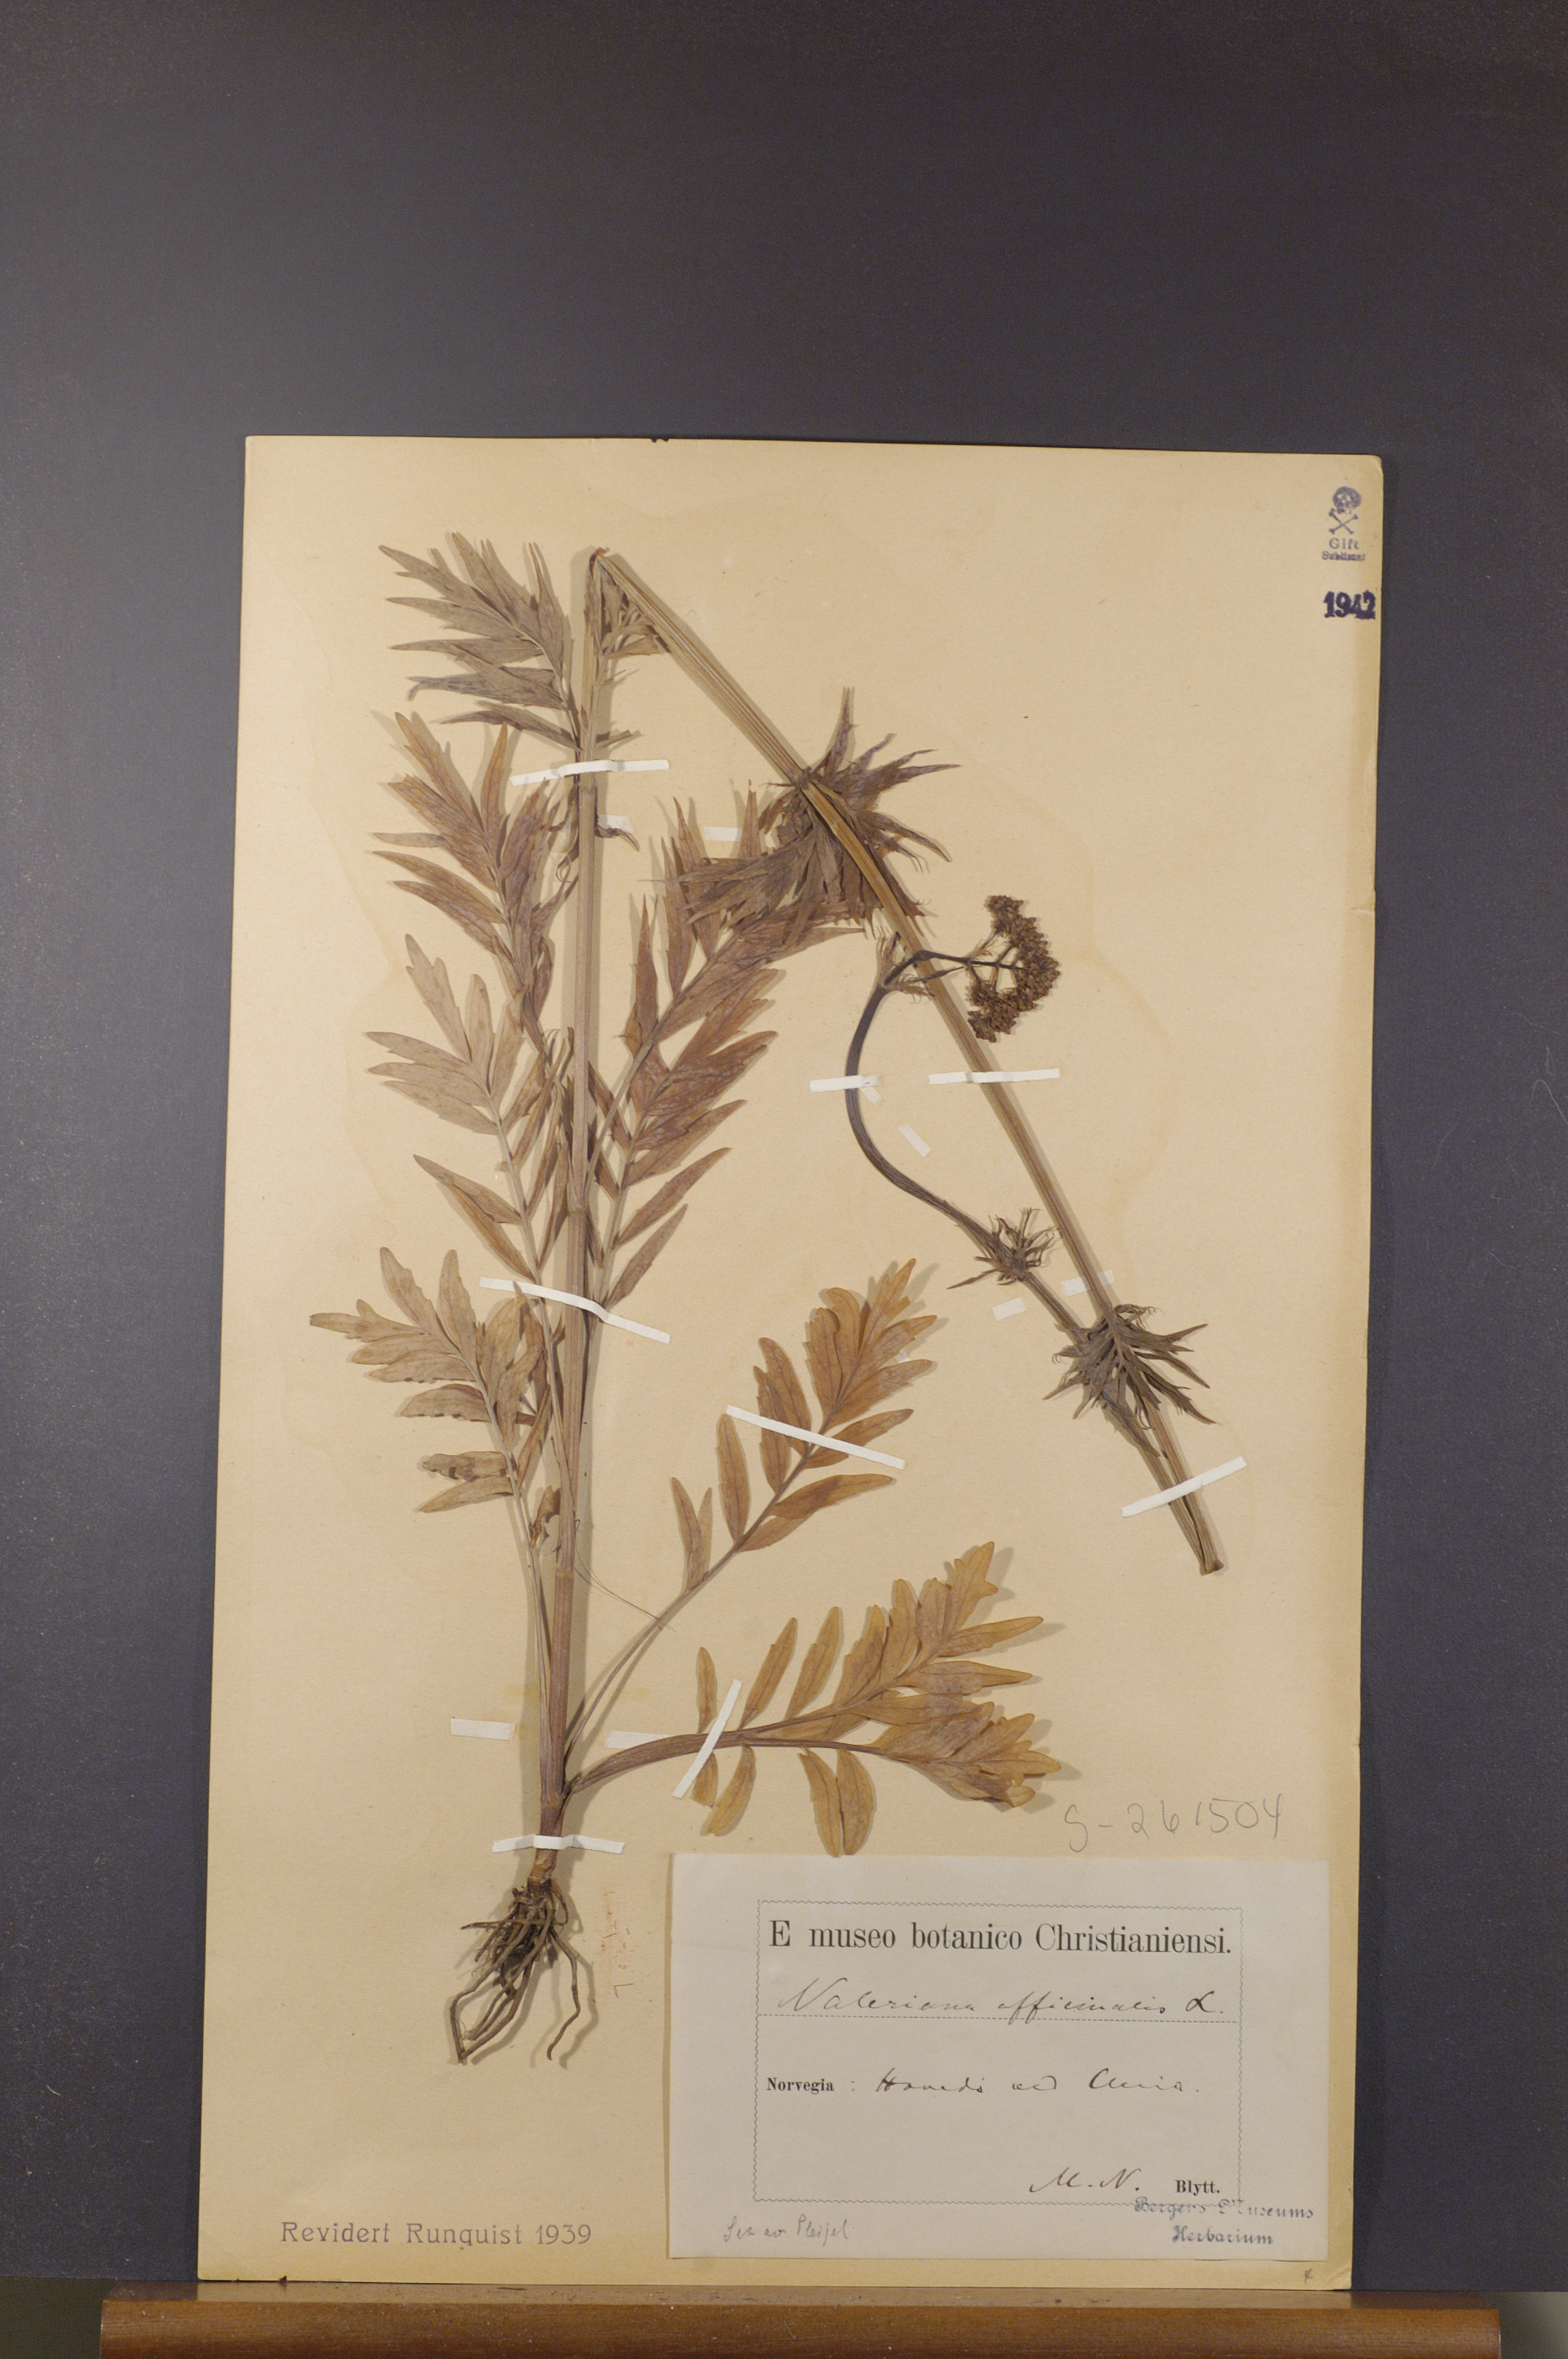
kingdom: Plantae
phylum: Tracheophyta
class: Magnoliopsida
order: Dipsacales
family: Caprifoliaceae
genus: Valeriana
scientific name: Valeriana officinalis
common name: Common valerian
